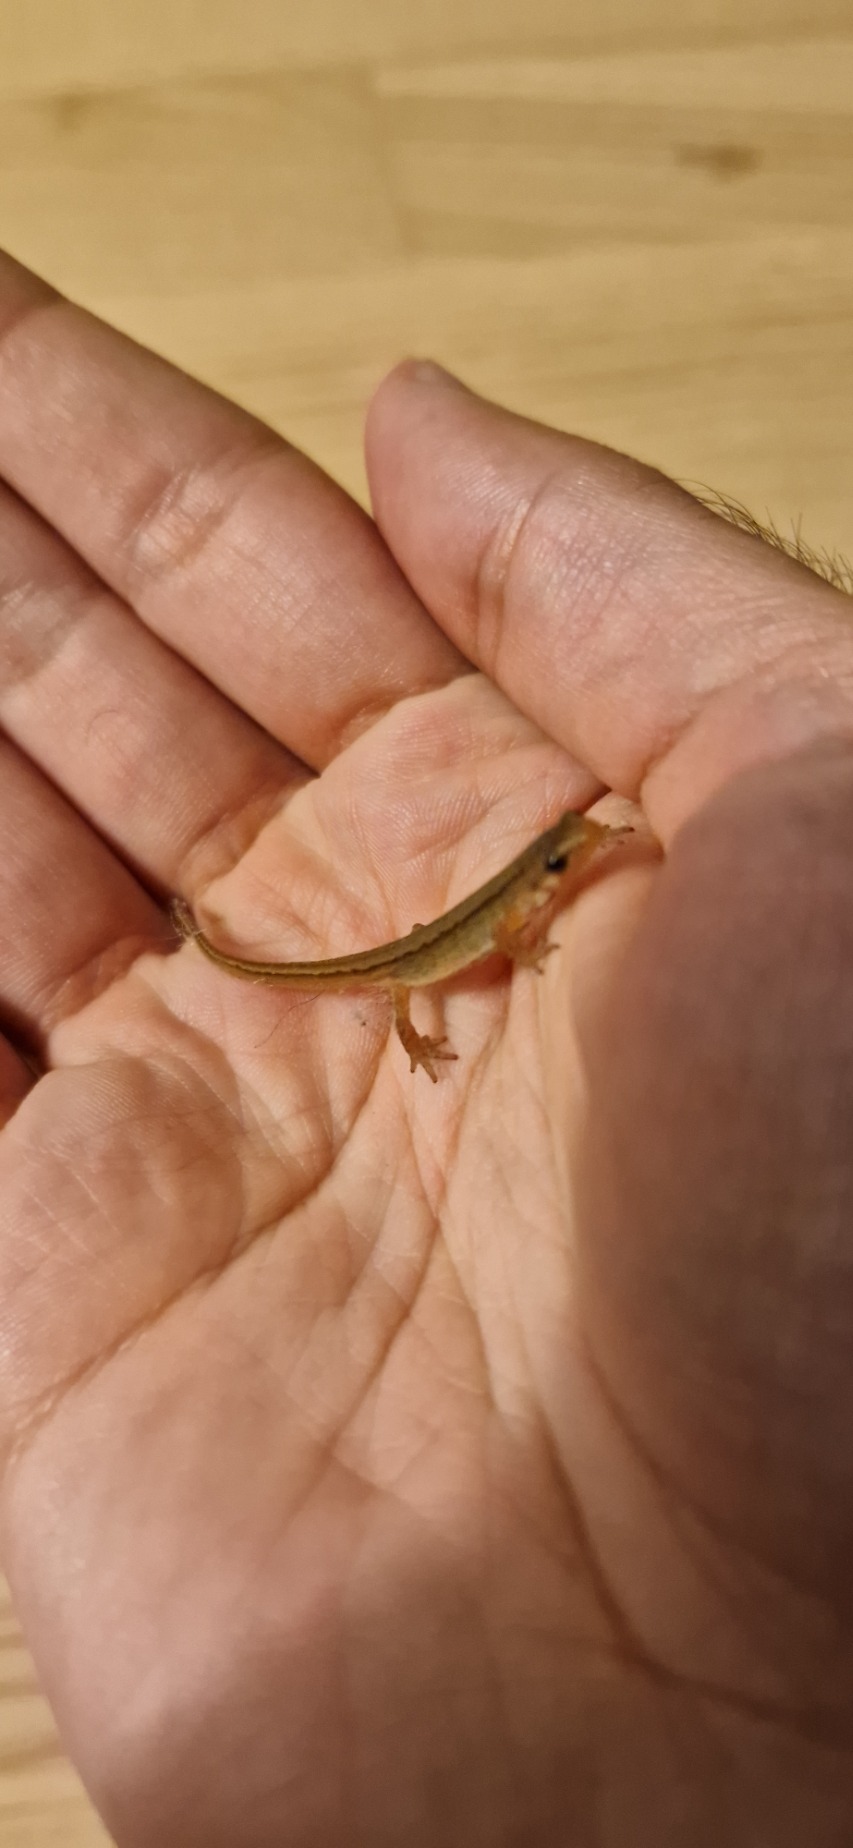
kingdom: Animalia
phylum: Chordata
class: Amphibia
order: Caudata
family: Salamandridae
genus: Lissotriton
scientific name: Lissotriton vulgaris
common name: Lille vandsalamander
